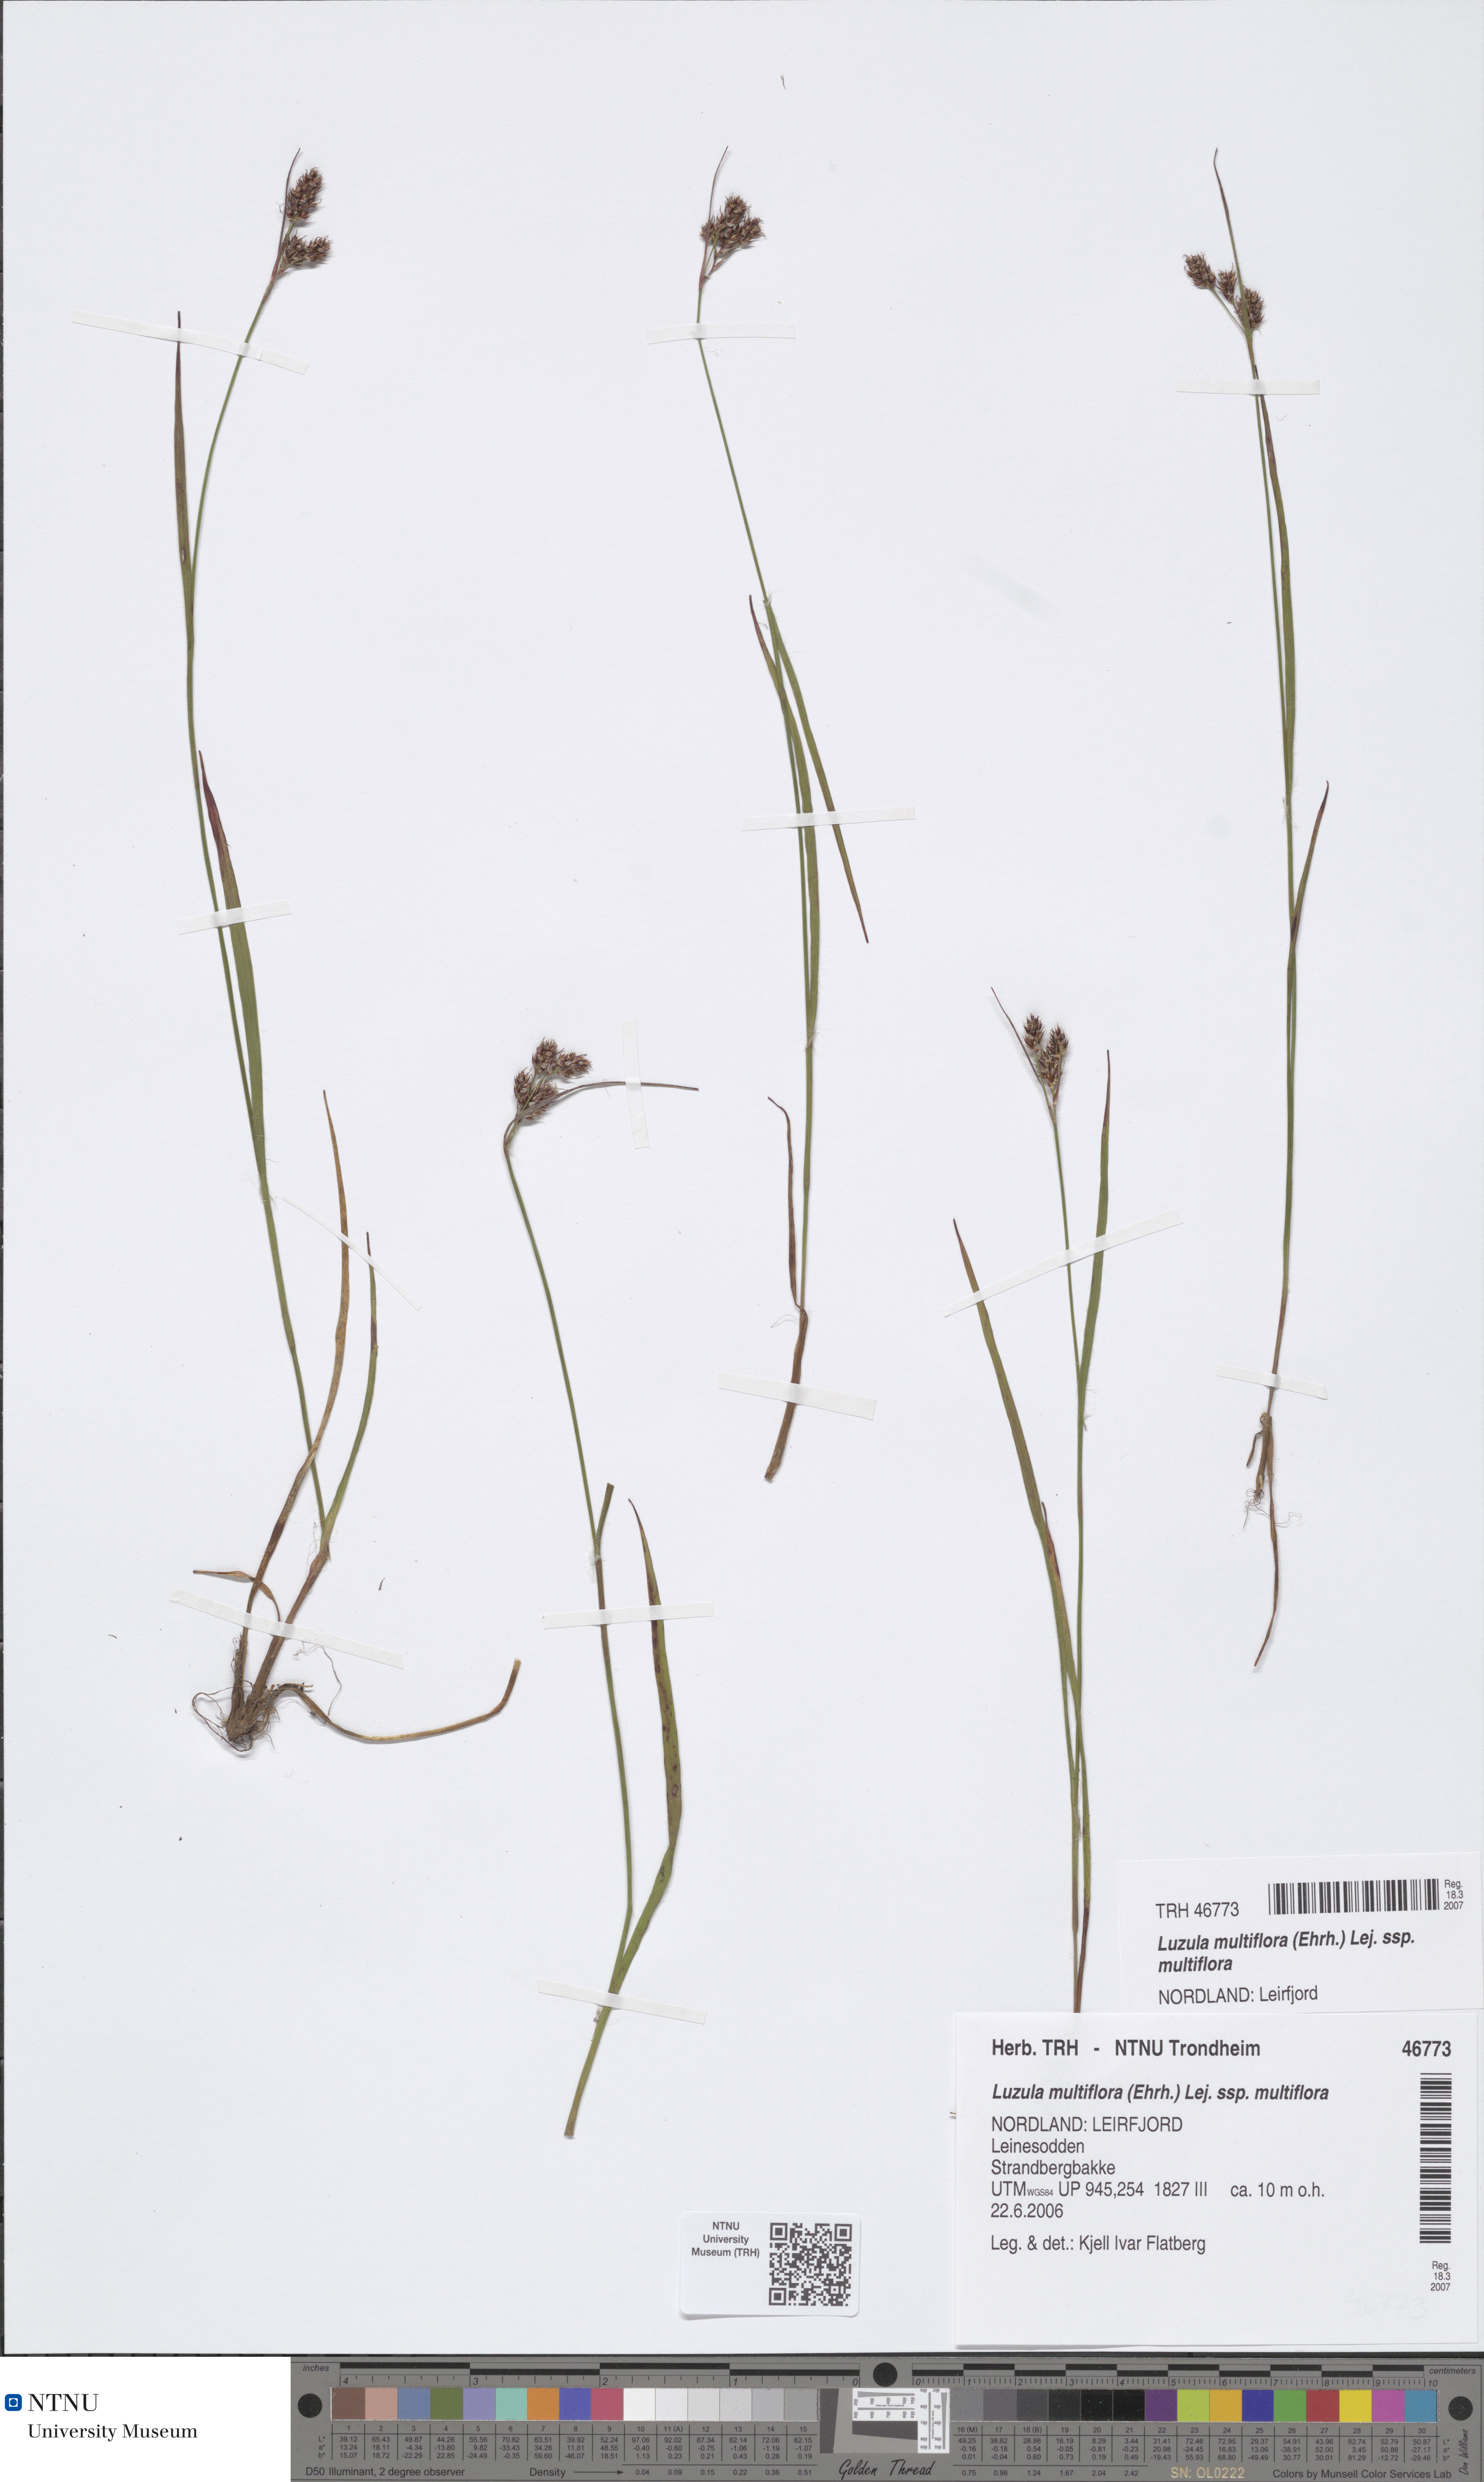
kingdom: Plantae
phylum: Tracheophyta
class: Liliopsida
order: Poales
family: Juncaceae
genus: Luzula
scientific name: Luzula multiflora
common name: Heath wood-rush
